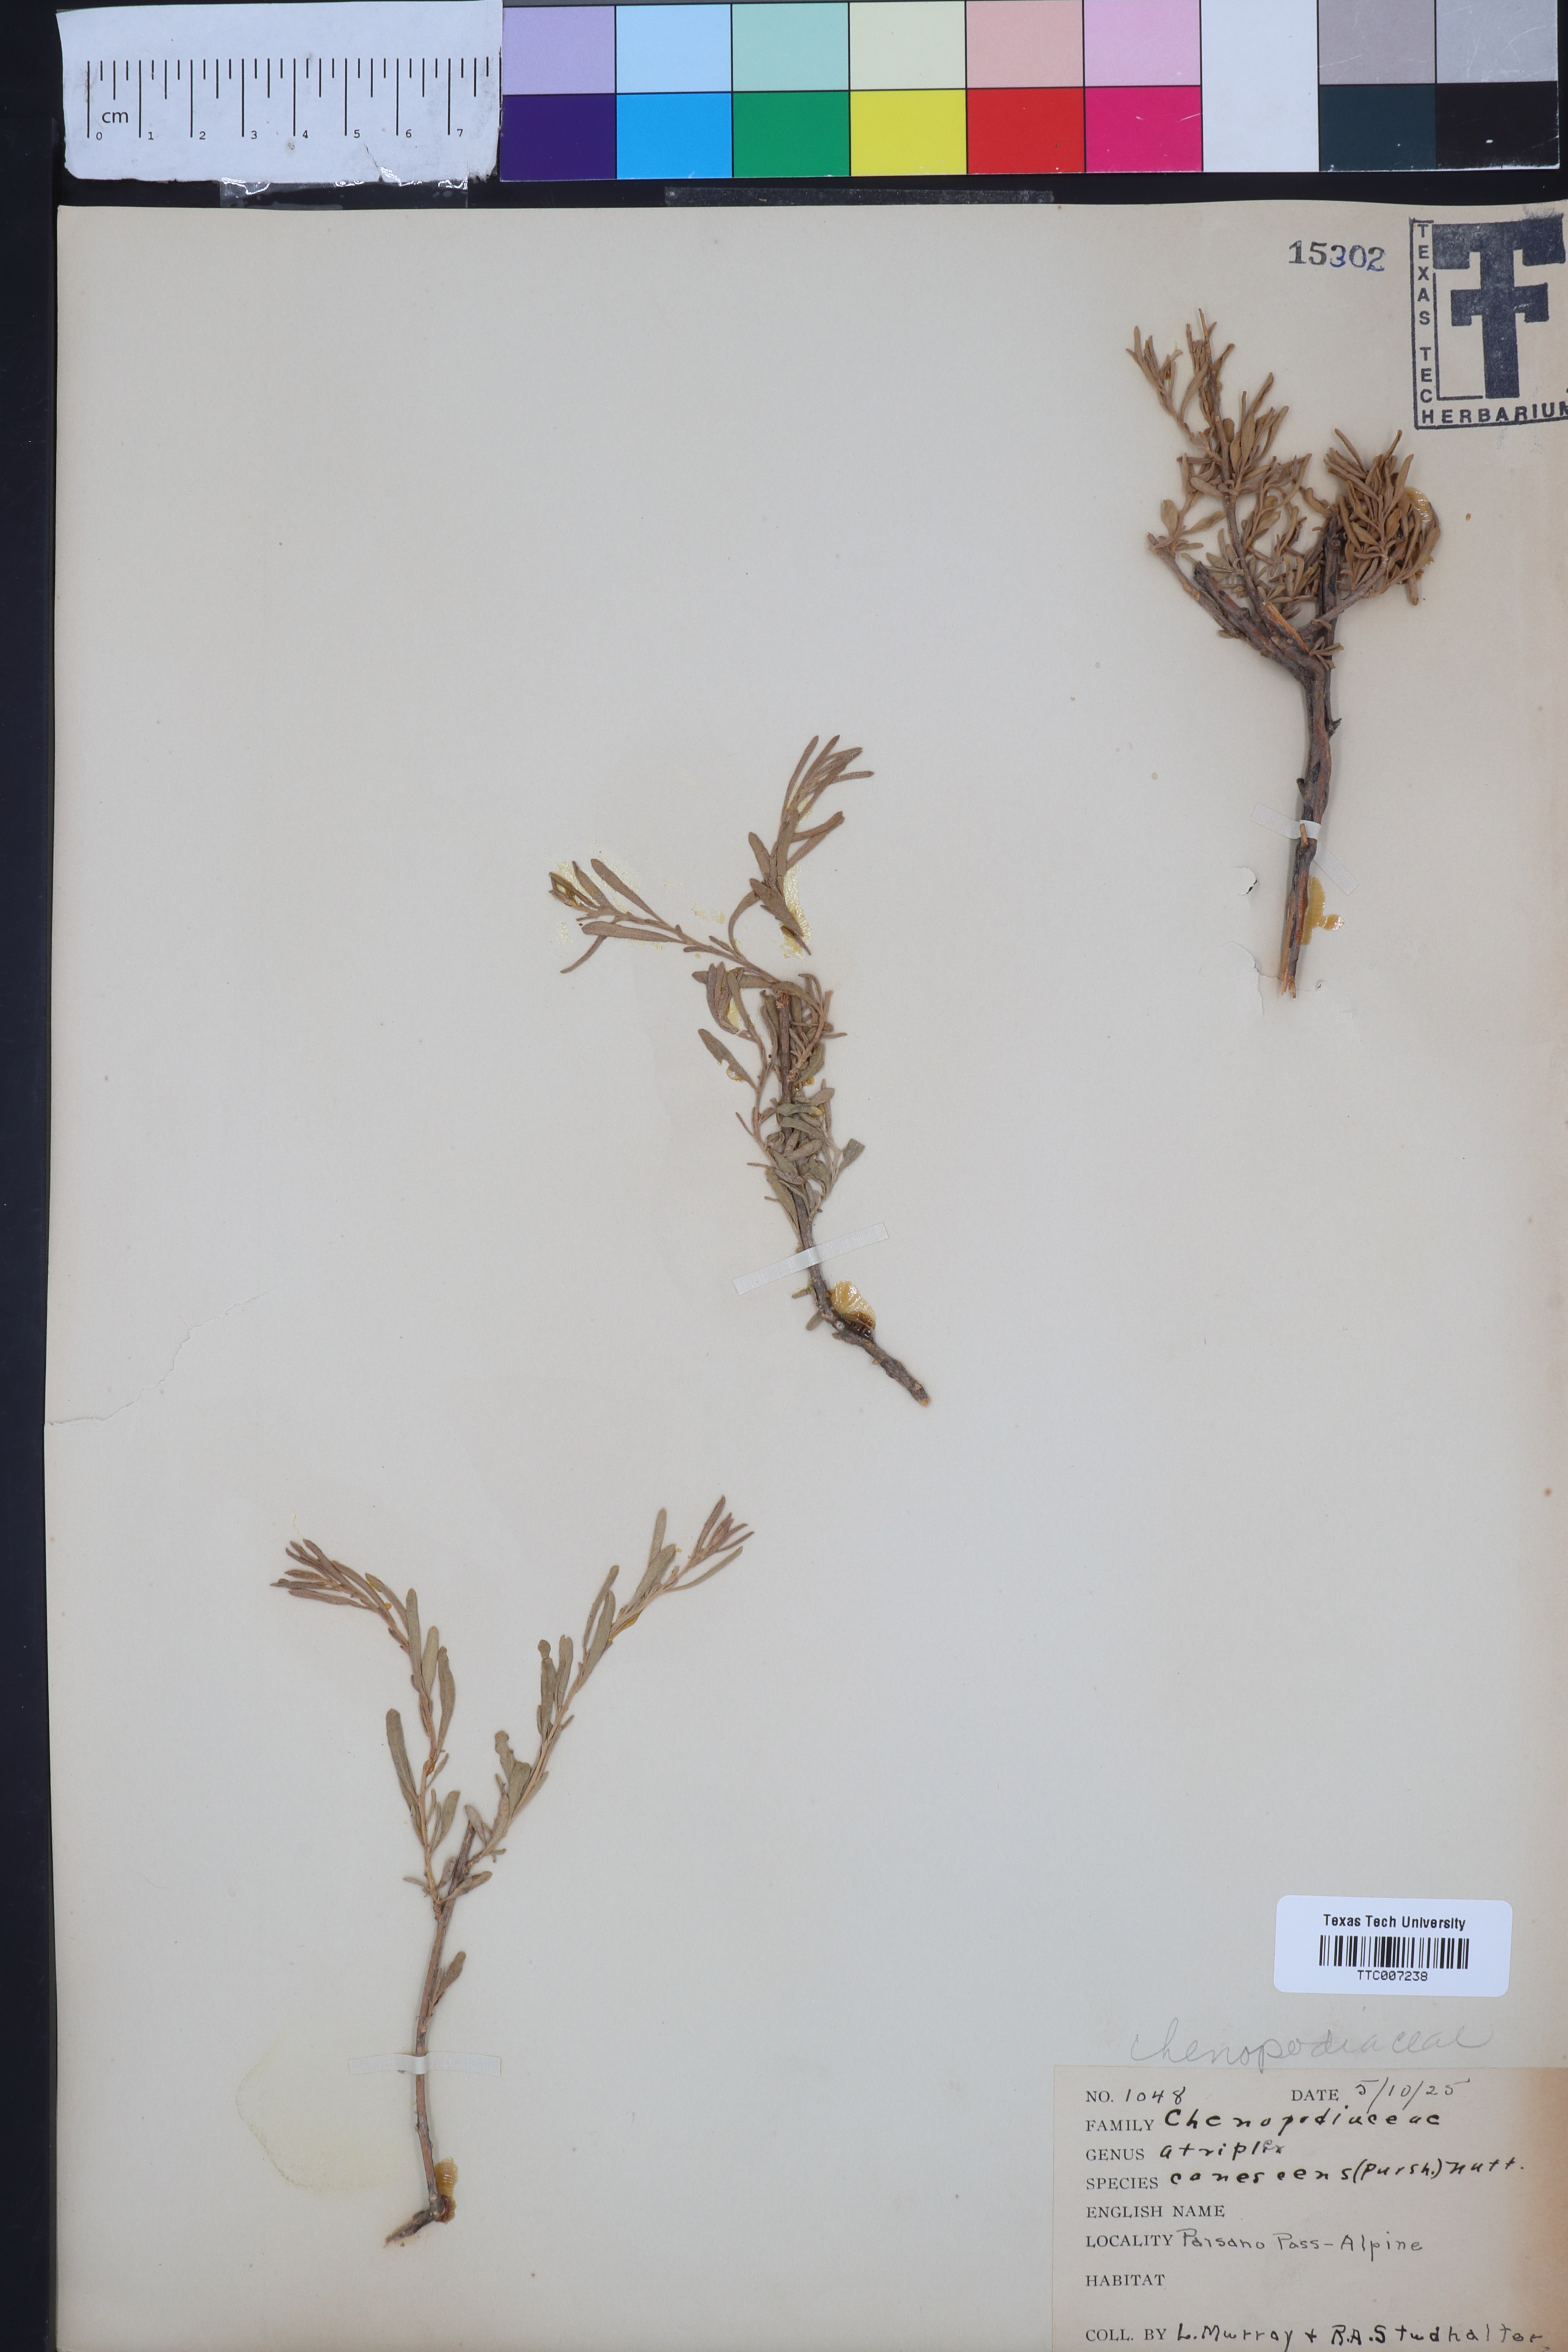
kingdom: Plantae
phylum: Tracheophyta
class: Magnoliopsida
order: Caryophyllales
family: Amaranthaceae
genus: Atriplex
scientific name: Atriplex canescens
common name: Four-wing saltbush
